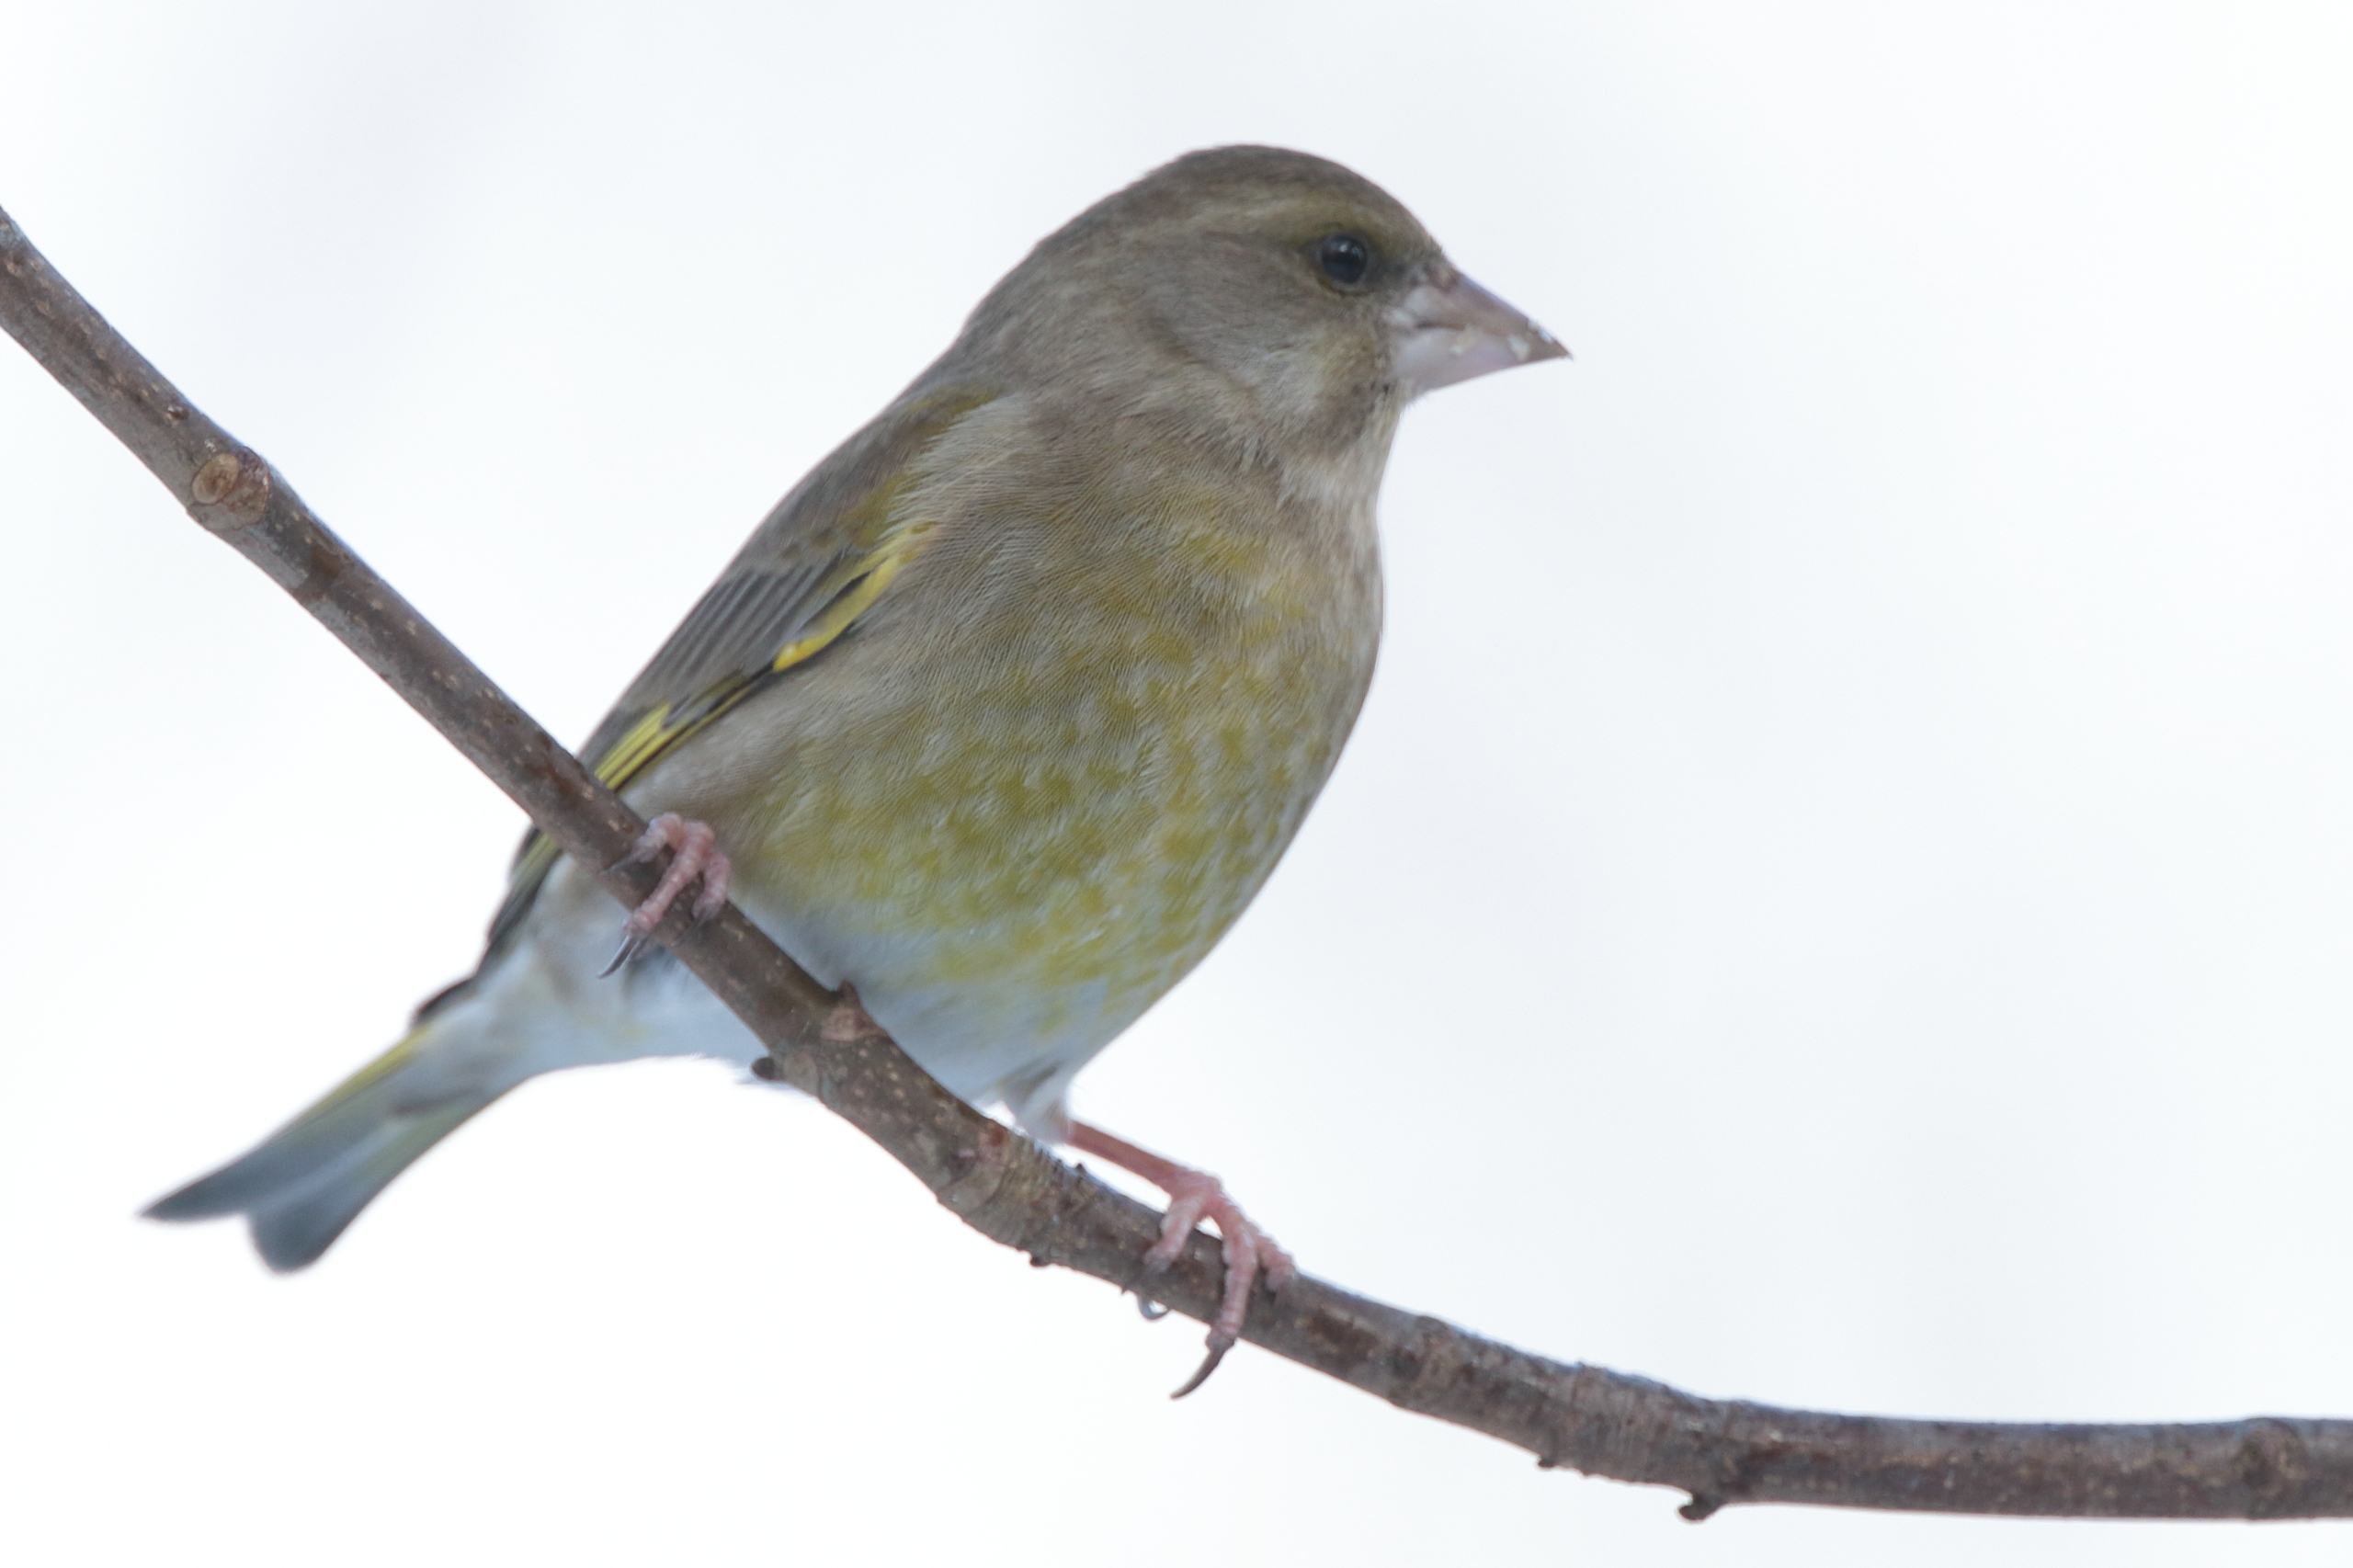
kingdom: Plantae
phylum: Tracheophyta
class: Liliopsida
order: Poales
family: Poaceae
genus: Chloris
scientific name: Chloris chloris
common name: Grønirisk
